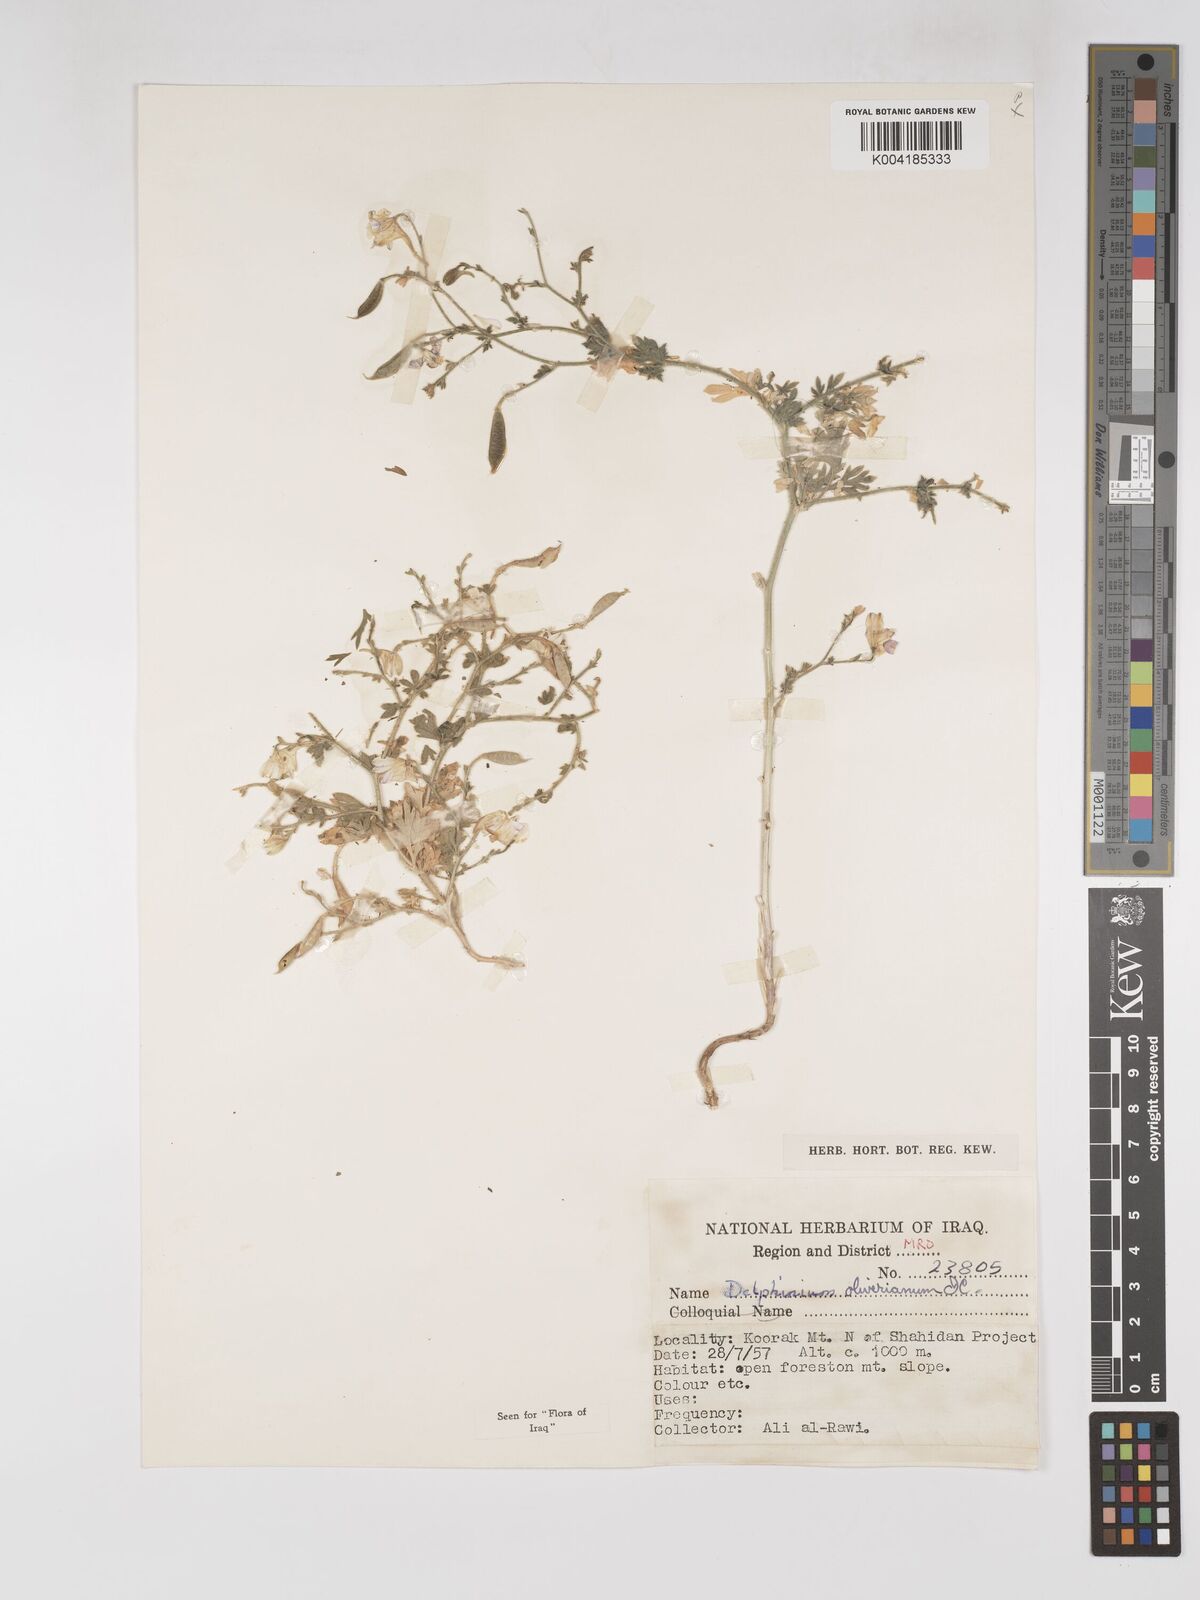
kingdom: Plantae
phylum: Tracheophyta
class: Magnoliopsida
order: Ranunculales
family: Ranunculaceae
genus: Delphinium
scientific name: Delphinium oliverianum
